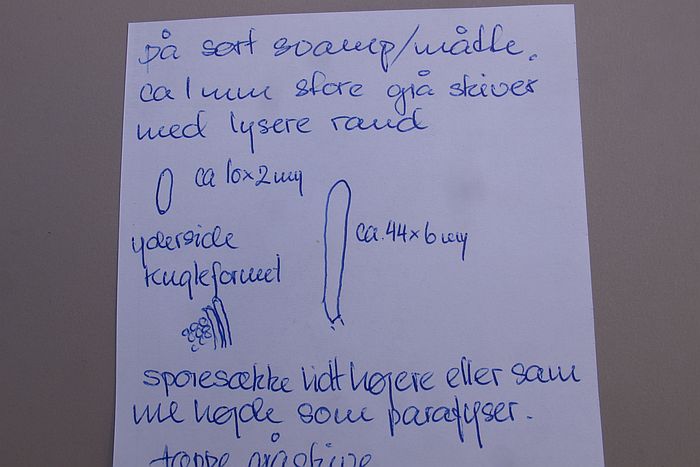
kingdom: Fungi
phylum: Ascomycota
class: Leotiomycetes
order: Helotiales
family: Mollisiaceae
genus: Mollisia
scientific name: Mollisia cinerea
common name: almindelig gråskive
